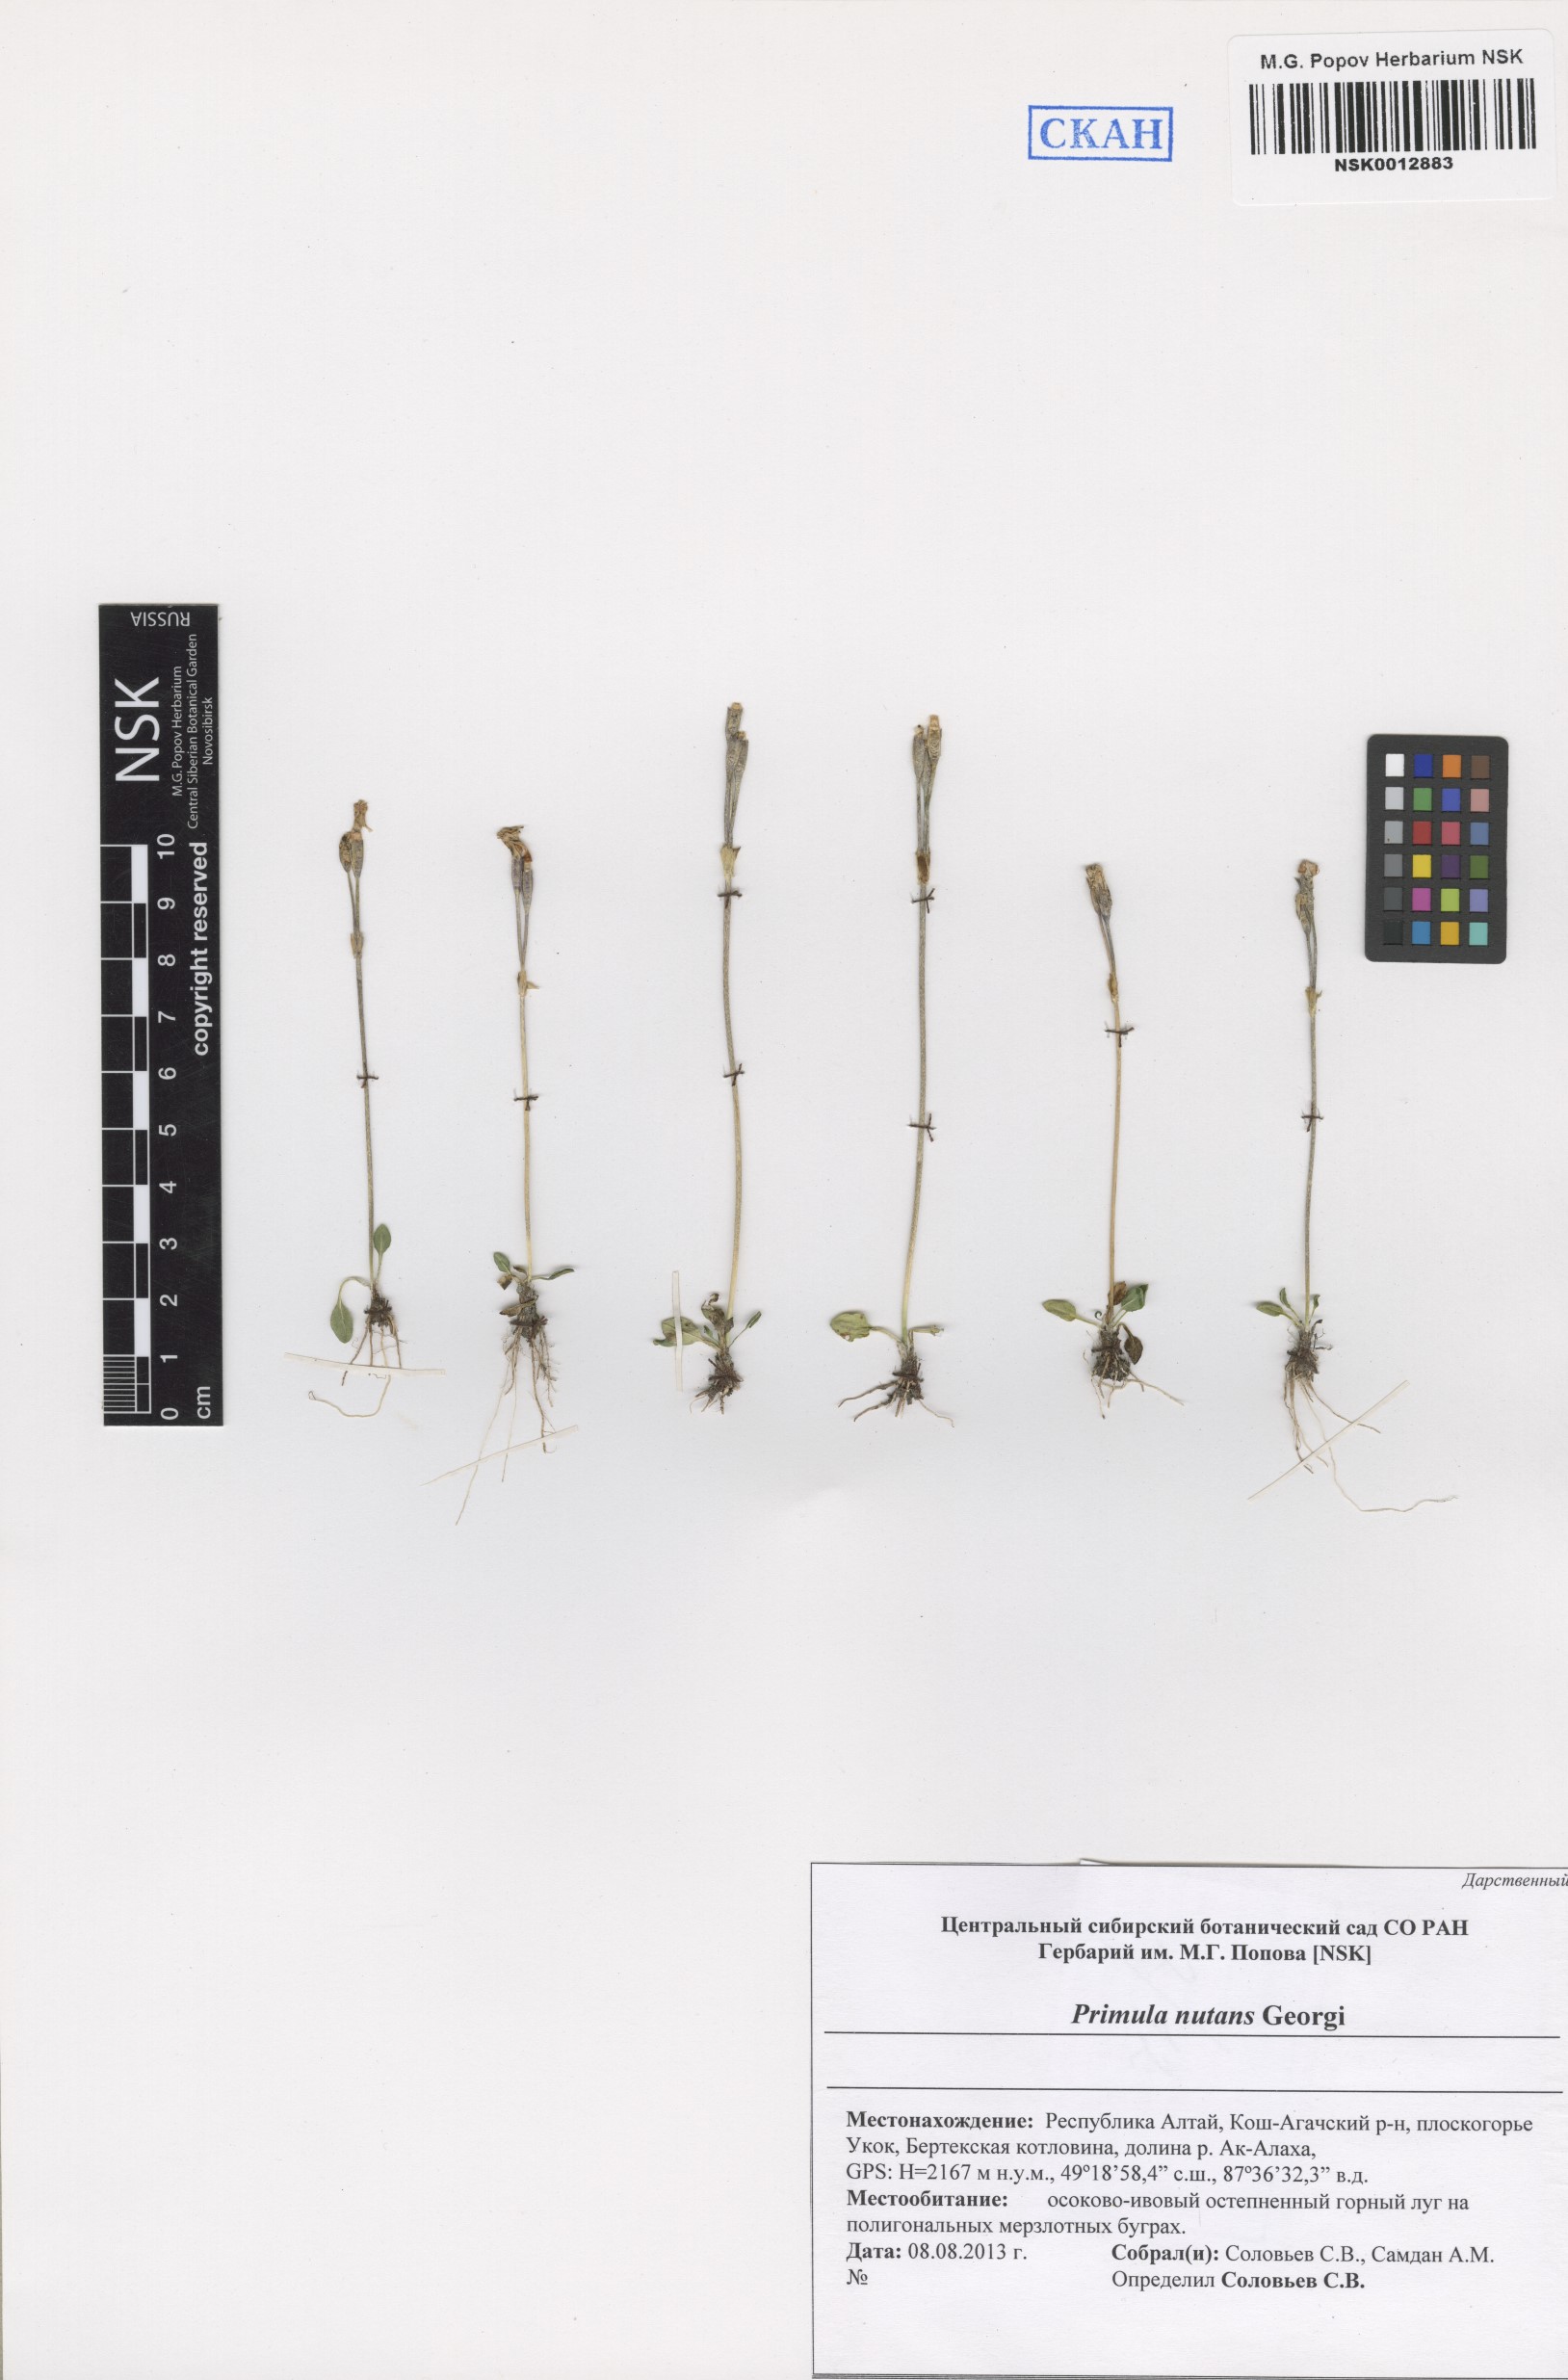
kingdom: Plantae
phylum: Tracheophyta
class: Magnoliopsida
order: Ericales
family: Primulaceae
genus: Primula
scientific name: Primula nutans
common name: Siberian primrose
